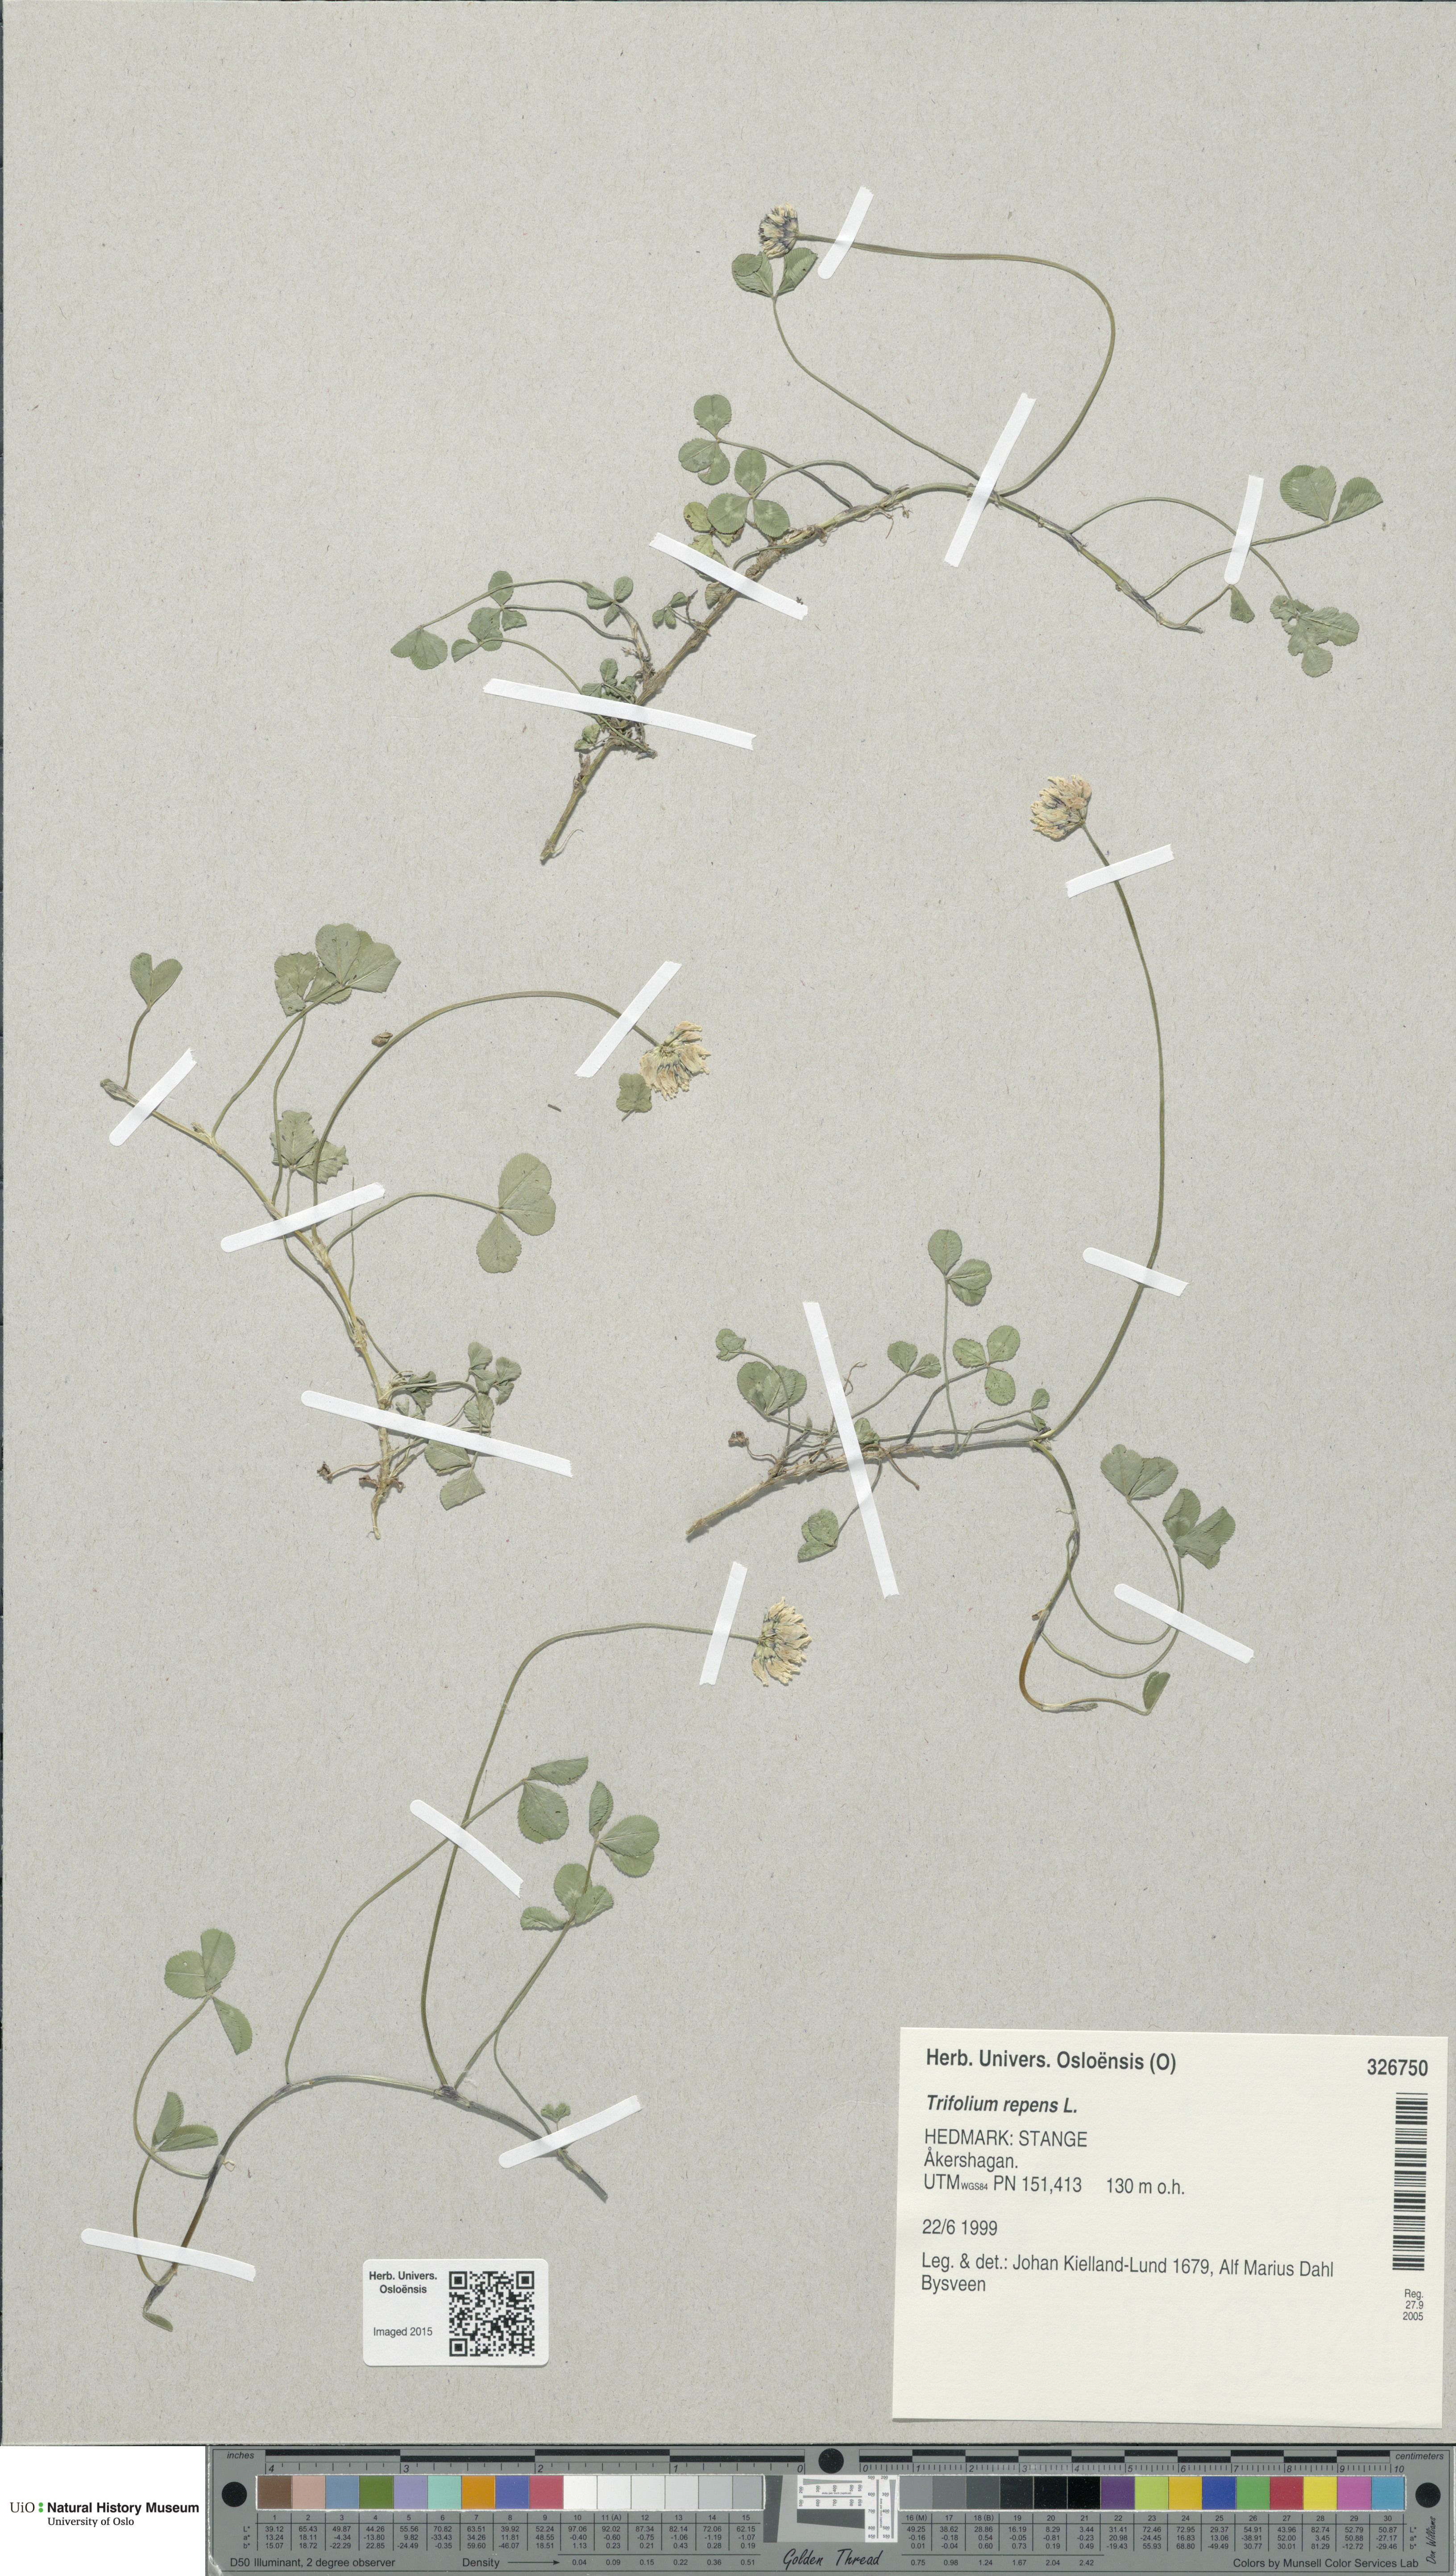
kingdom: Plantae
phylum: Tracheophyta
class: Magnoliopsida
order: Fabales
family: Fabaceae
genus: Trifolium
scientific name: Trifolium repens
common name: White clover
